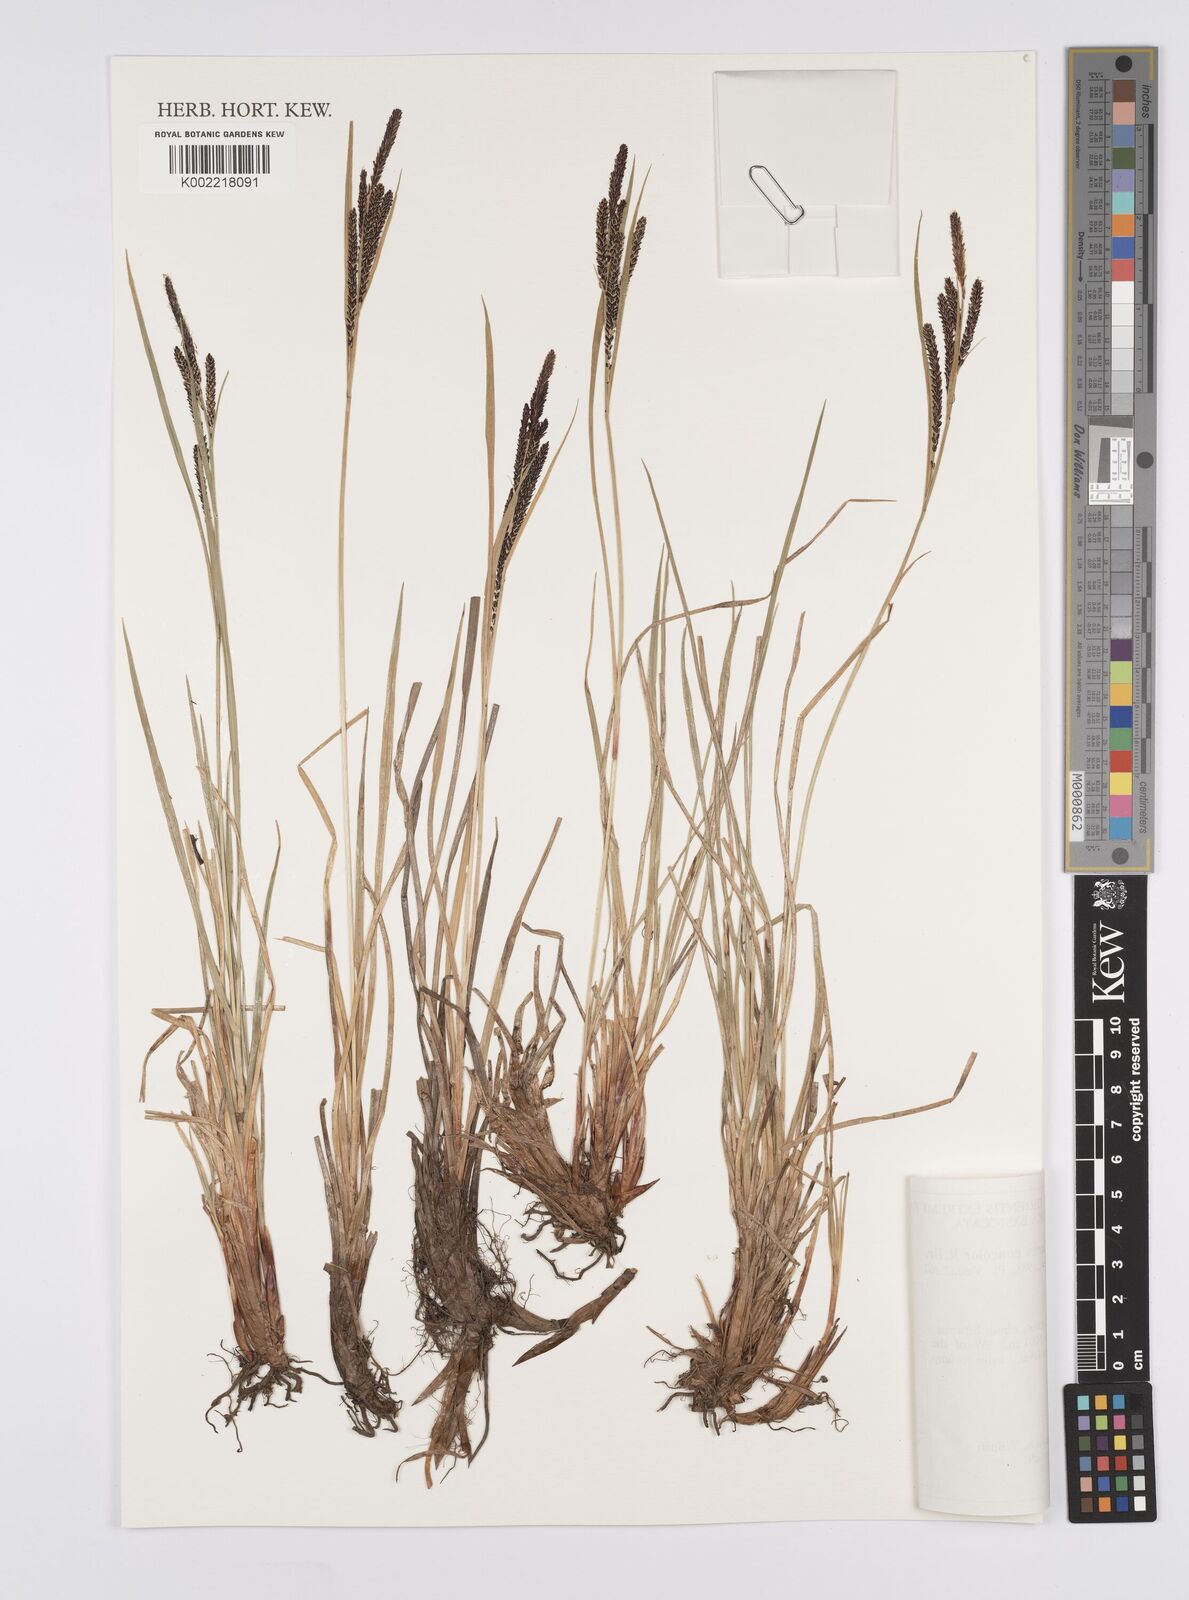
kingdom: Plantae
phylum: Tracheophyta
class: Liliopsida
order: Poales
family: Cyperaceae
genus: Carex
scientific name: Carex aquatilis
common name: Water sedge
